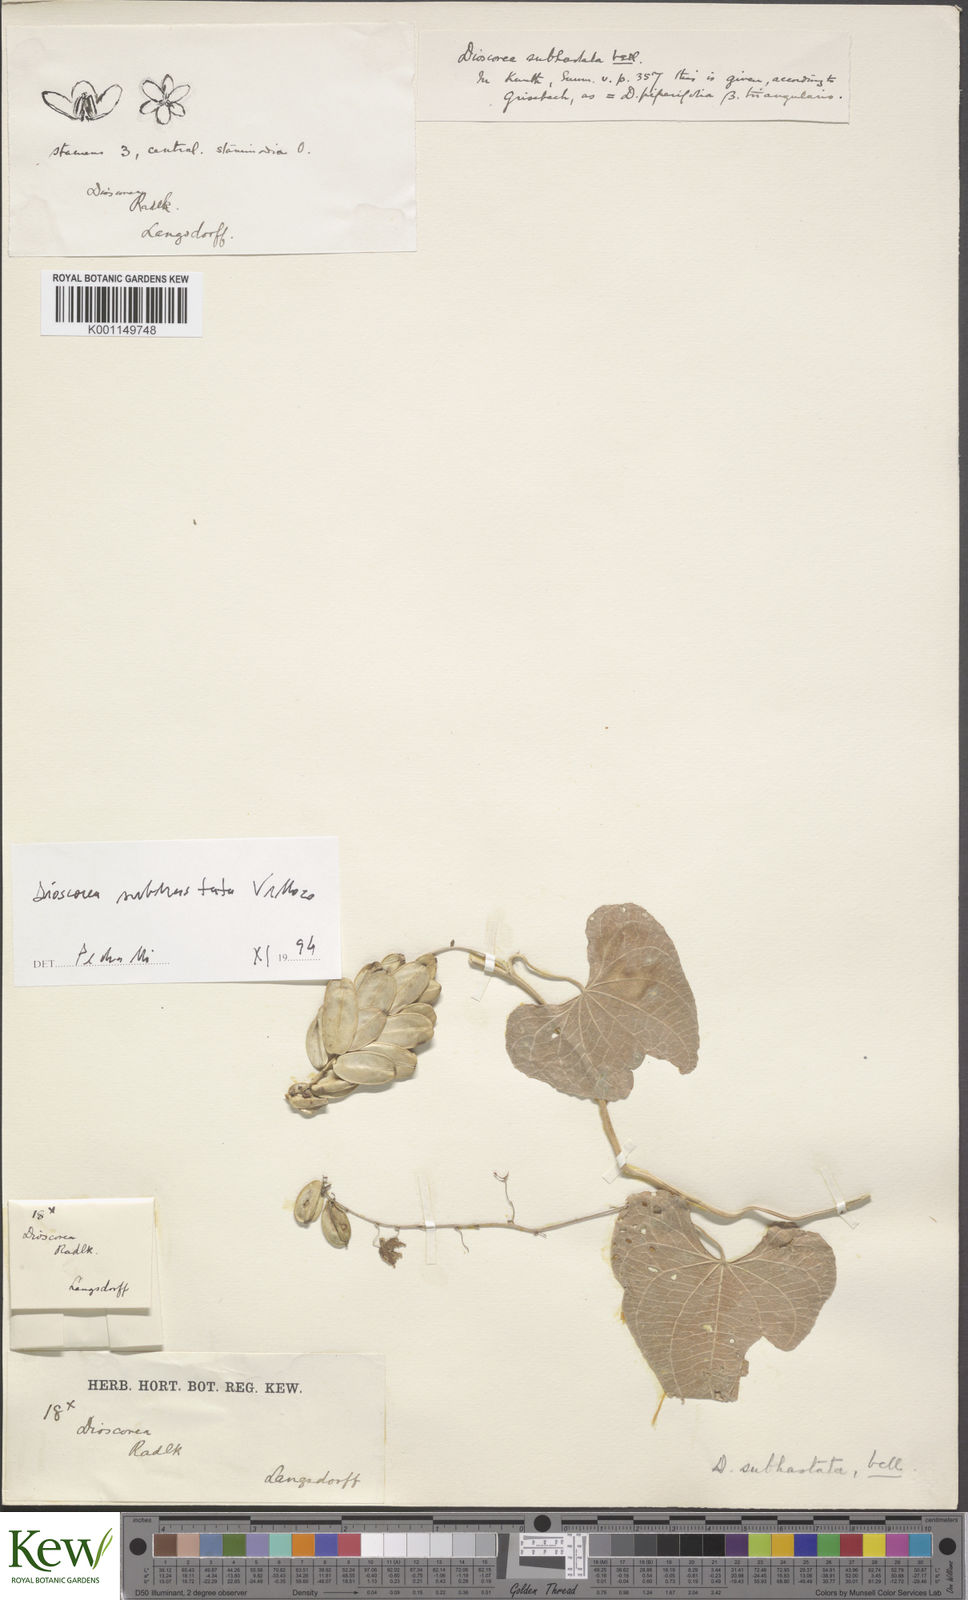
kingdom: Plantae
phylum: Tracheophyta
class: Liliopsida
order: Dioscoreales
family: Dioscoreaceae
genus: Dioscorea
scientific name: Dioscorea monadelpha
